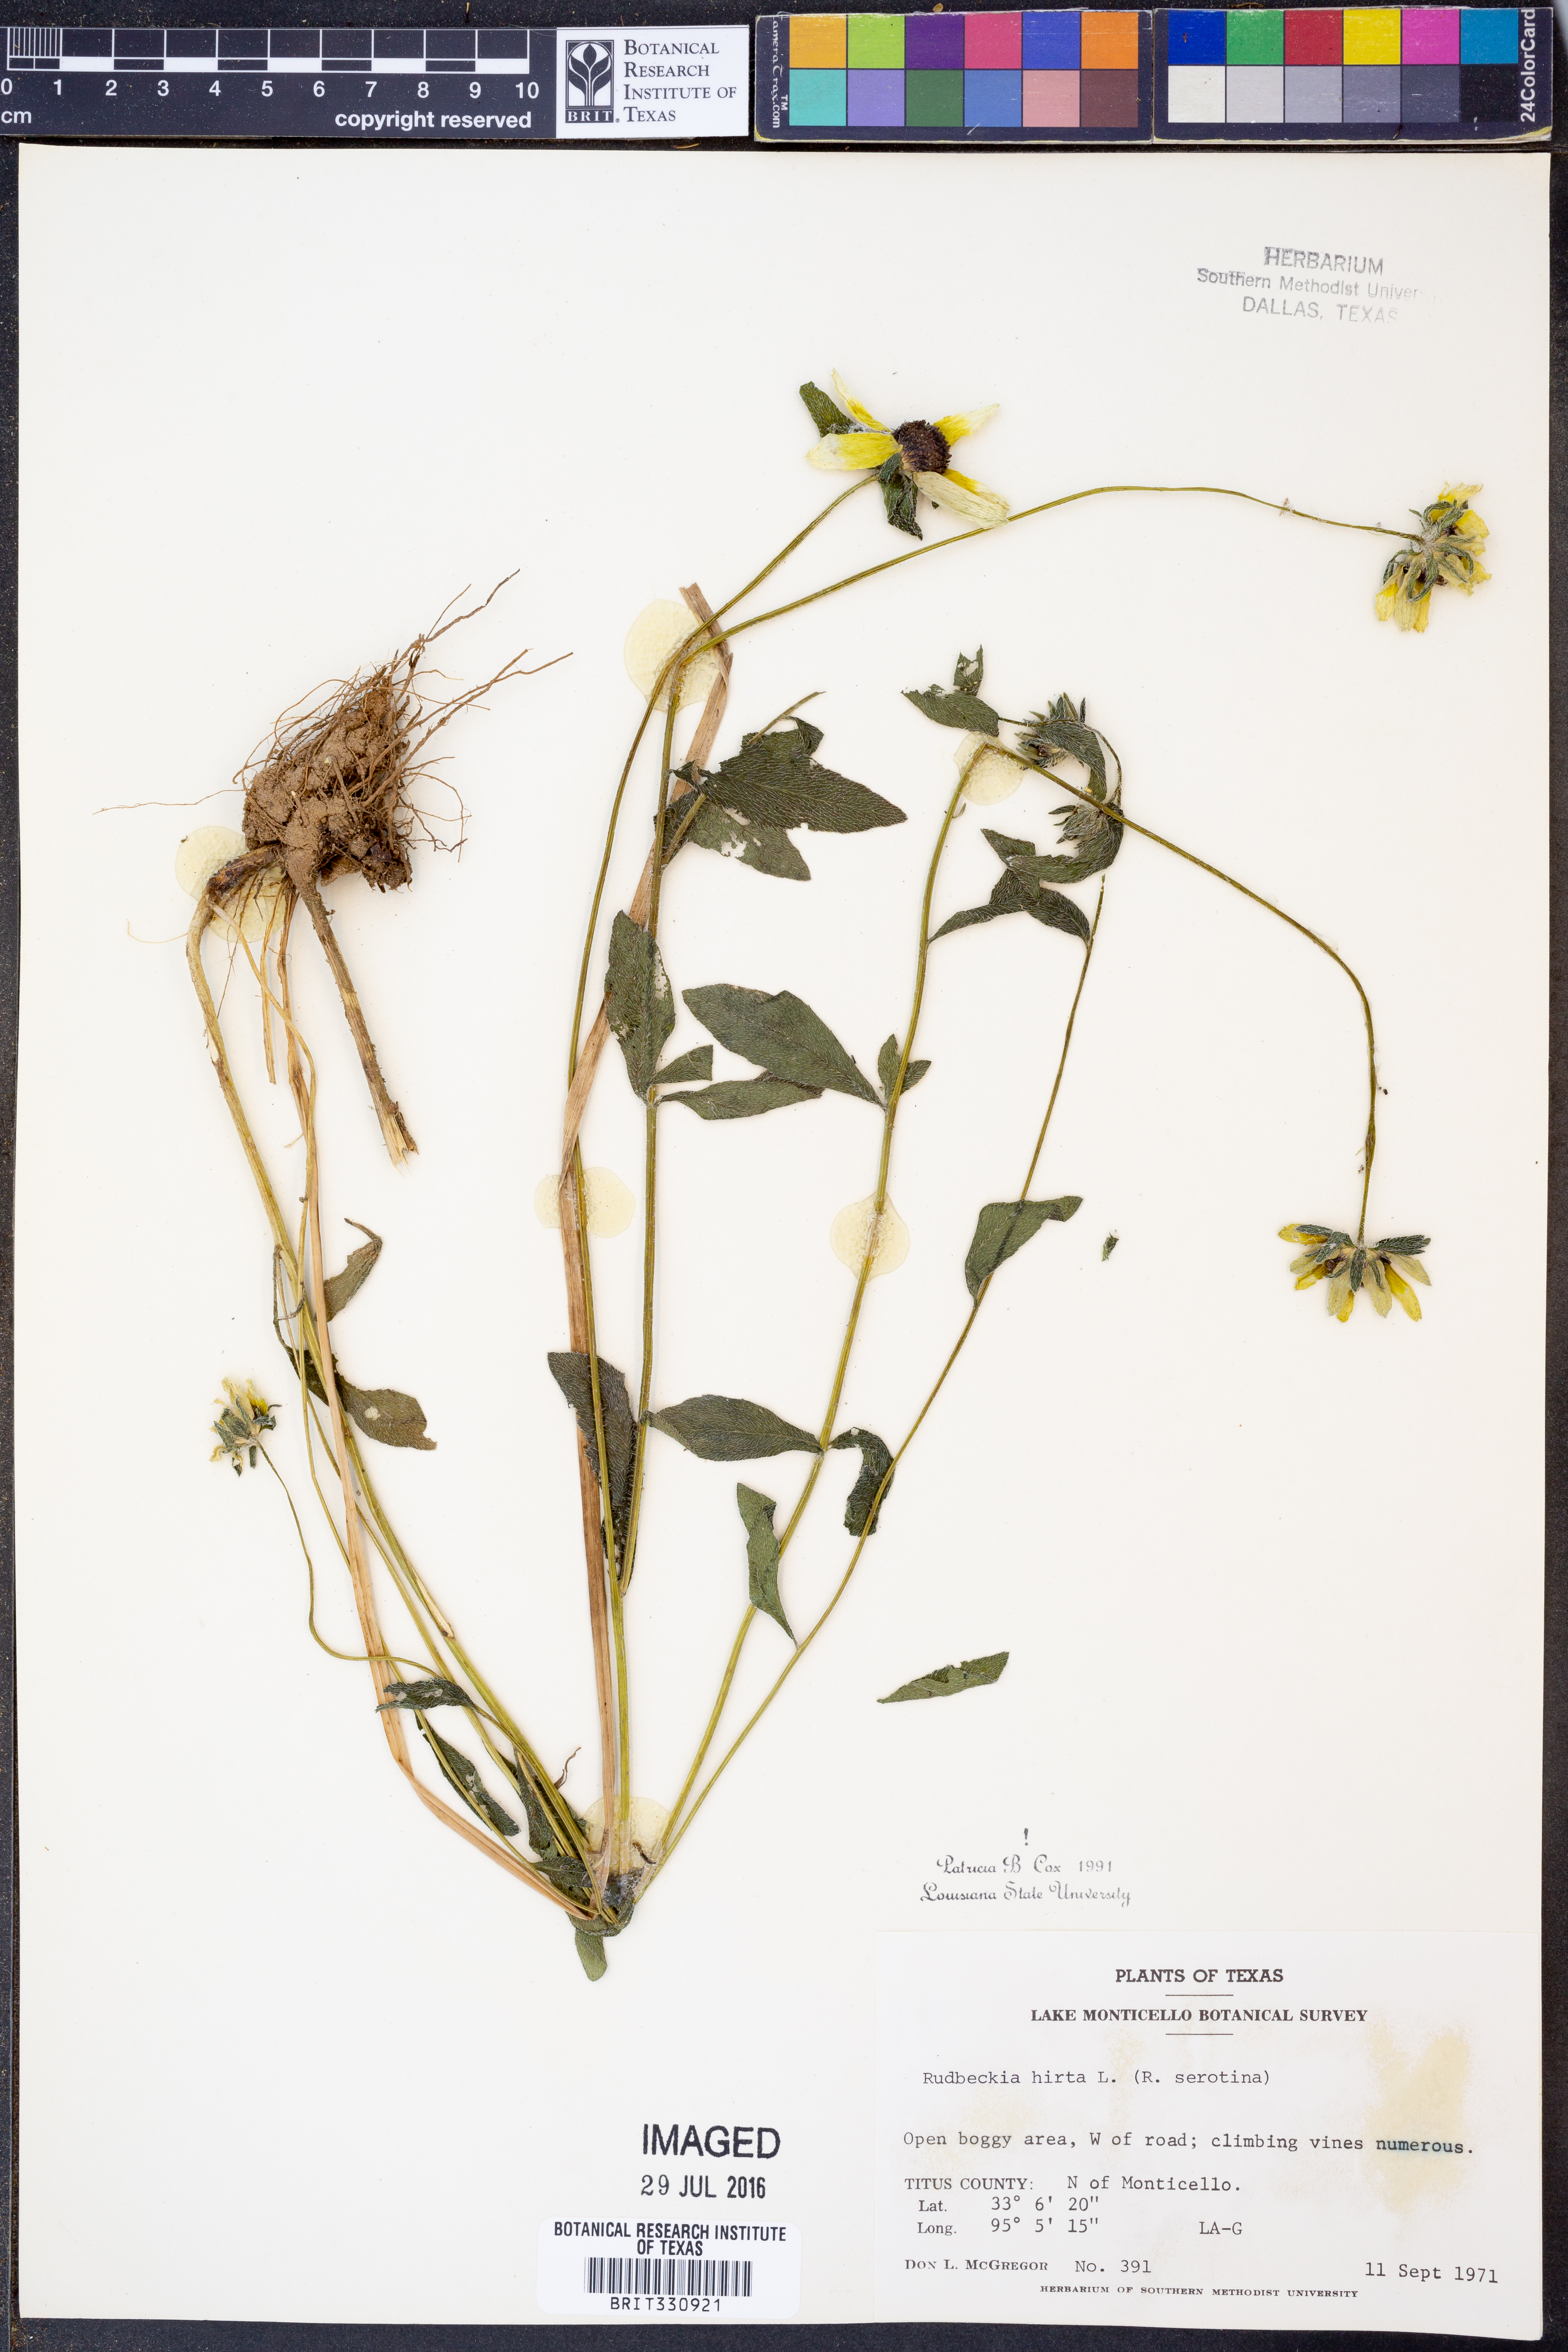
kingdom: Plantae
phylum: Tracheophyta
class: Magnoliopsida
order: Asterales
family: Asteraceae
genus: Rudbeckia
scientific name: Rudbeckia hirta
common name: Black-eyed-susan
